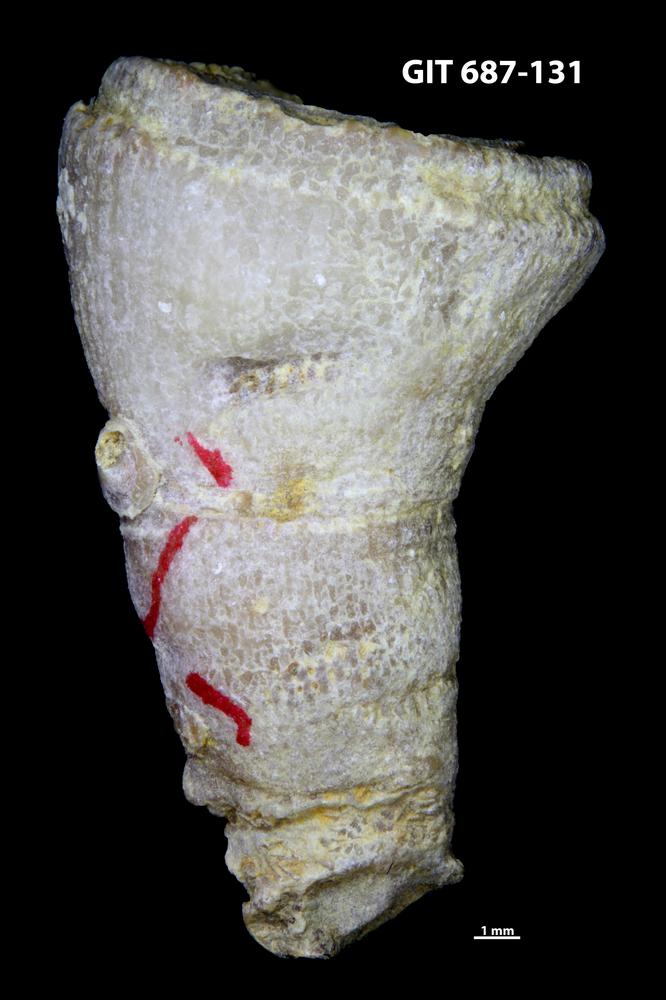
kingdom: Animalia
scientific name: Animalia
